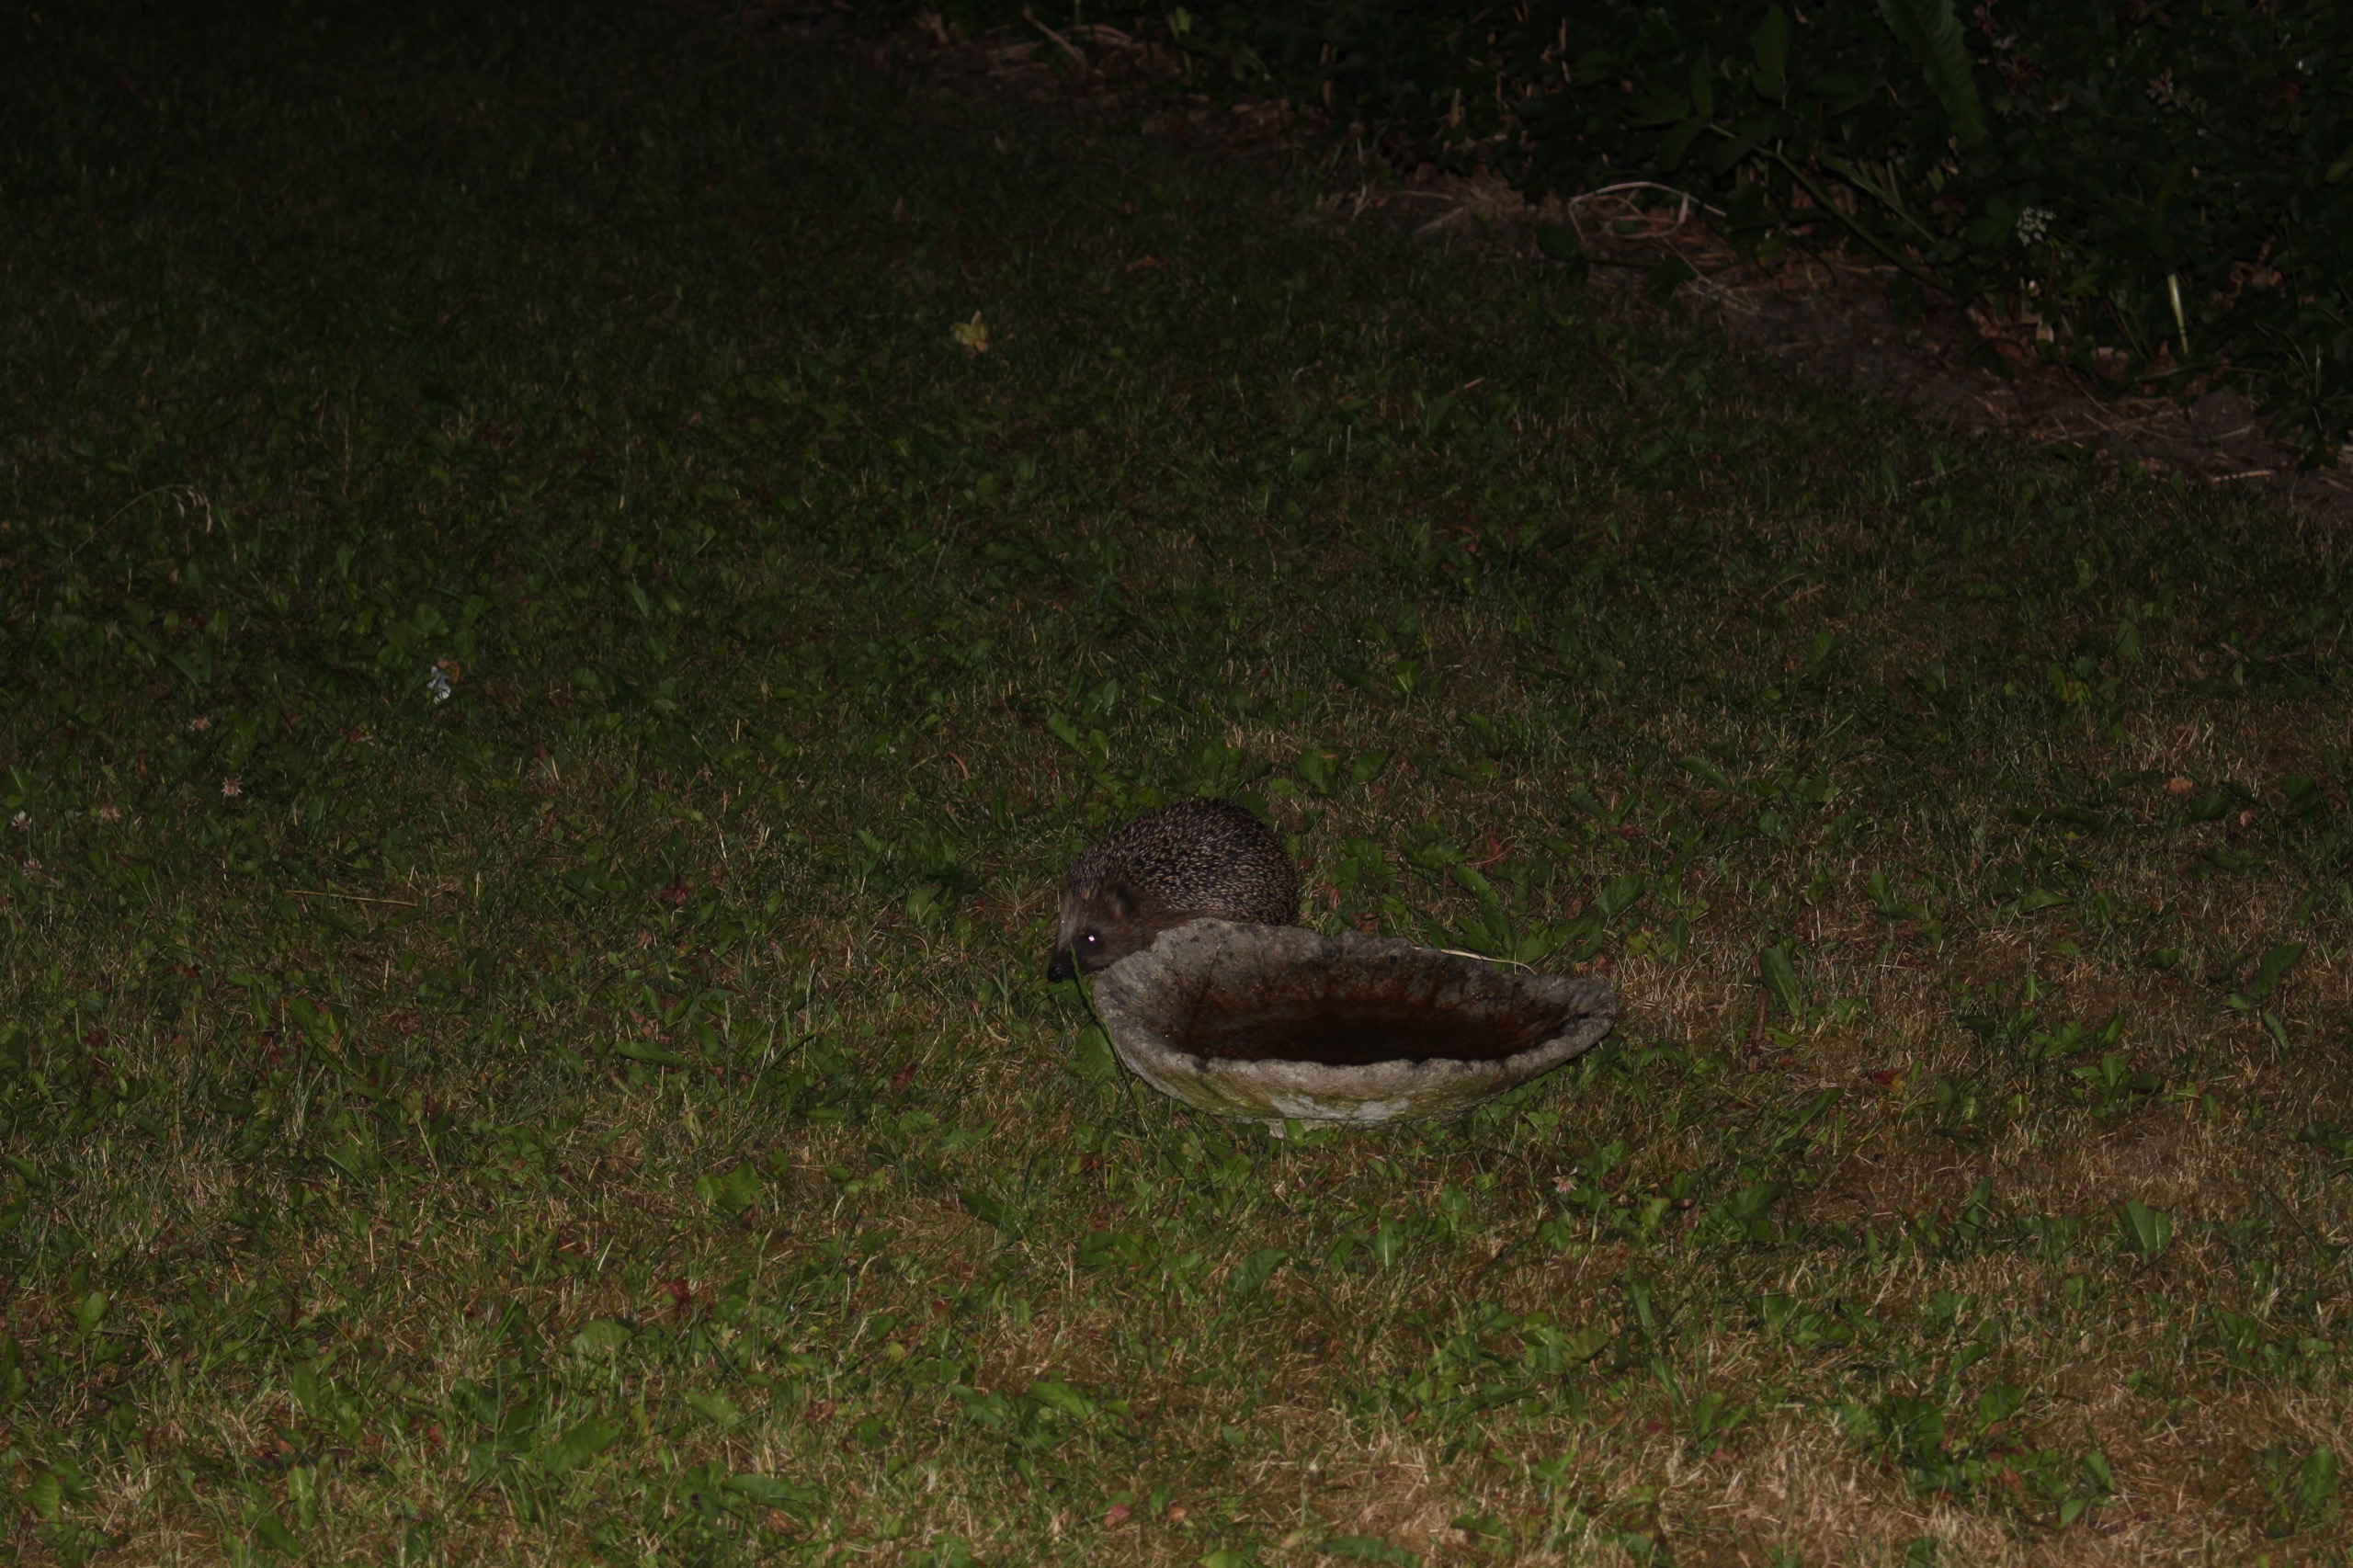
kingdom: Animalia
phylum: Chordata
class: Mammalia
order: Erinaceomorpha
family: Erinaceidae
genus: Erinaceus
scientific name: Erinaceus europaeus
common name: Pindsvin
